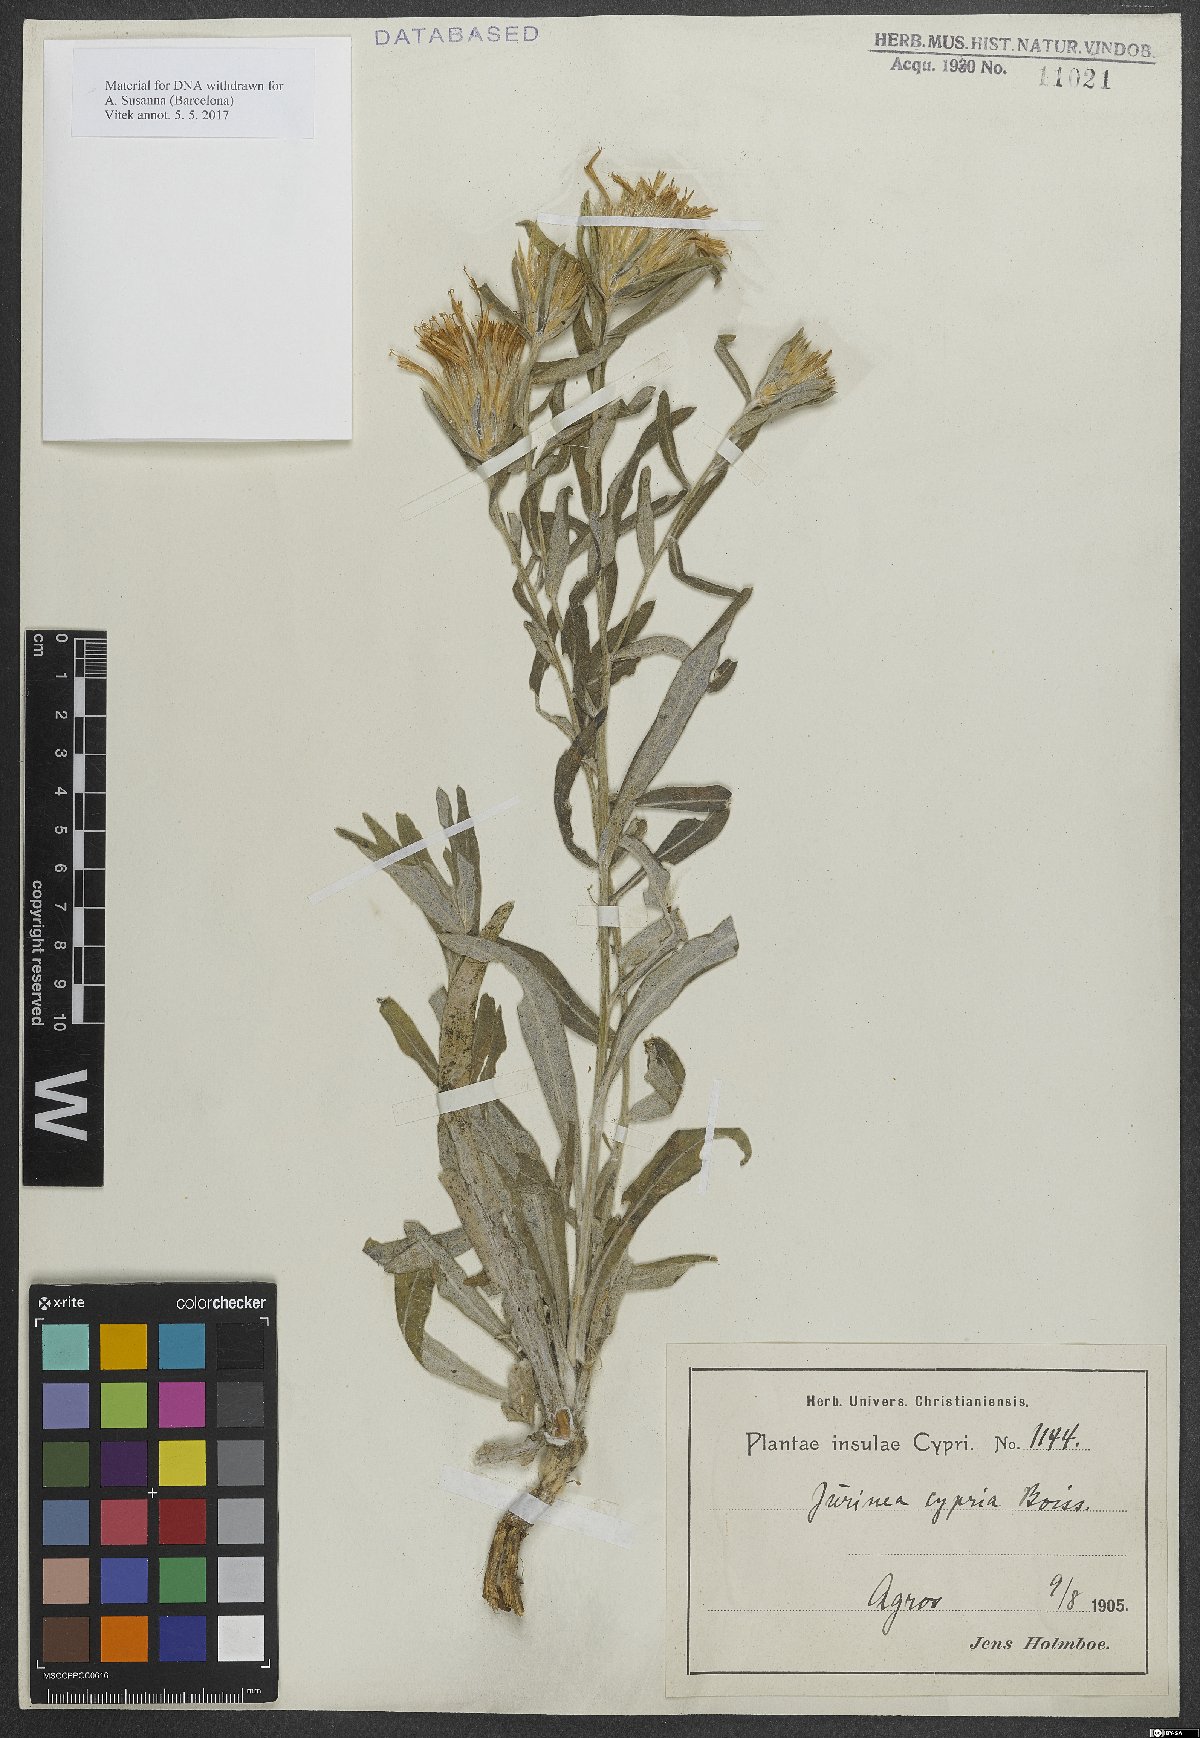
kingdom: Plantae
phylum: Tracheophyta
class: Magnoliopsida
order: Asterales
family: Asteraceae
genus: Jurinea
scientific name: Jurinea cypria
